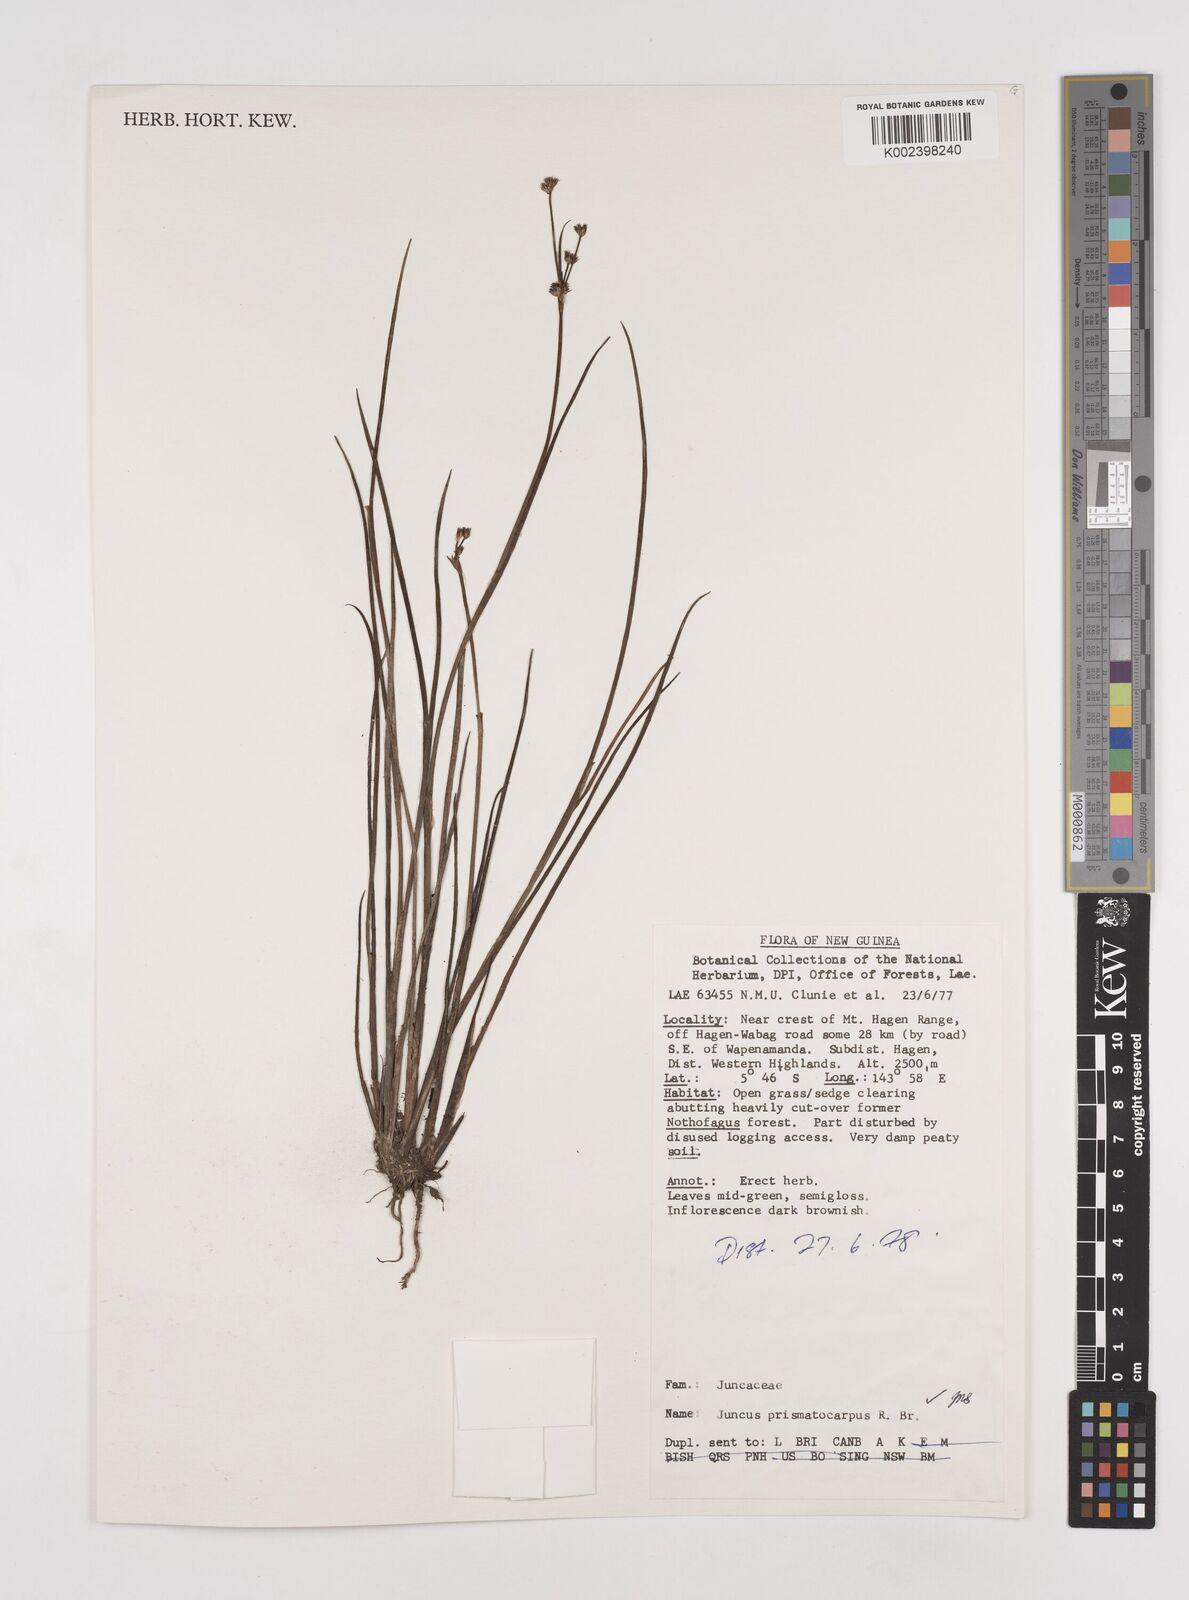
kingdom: Plantae
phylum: Tracheophyta
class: Liliopsida
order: Poales
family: Juncaceae
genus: Juncus
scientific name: Juncus wallichianus
